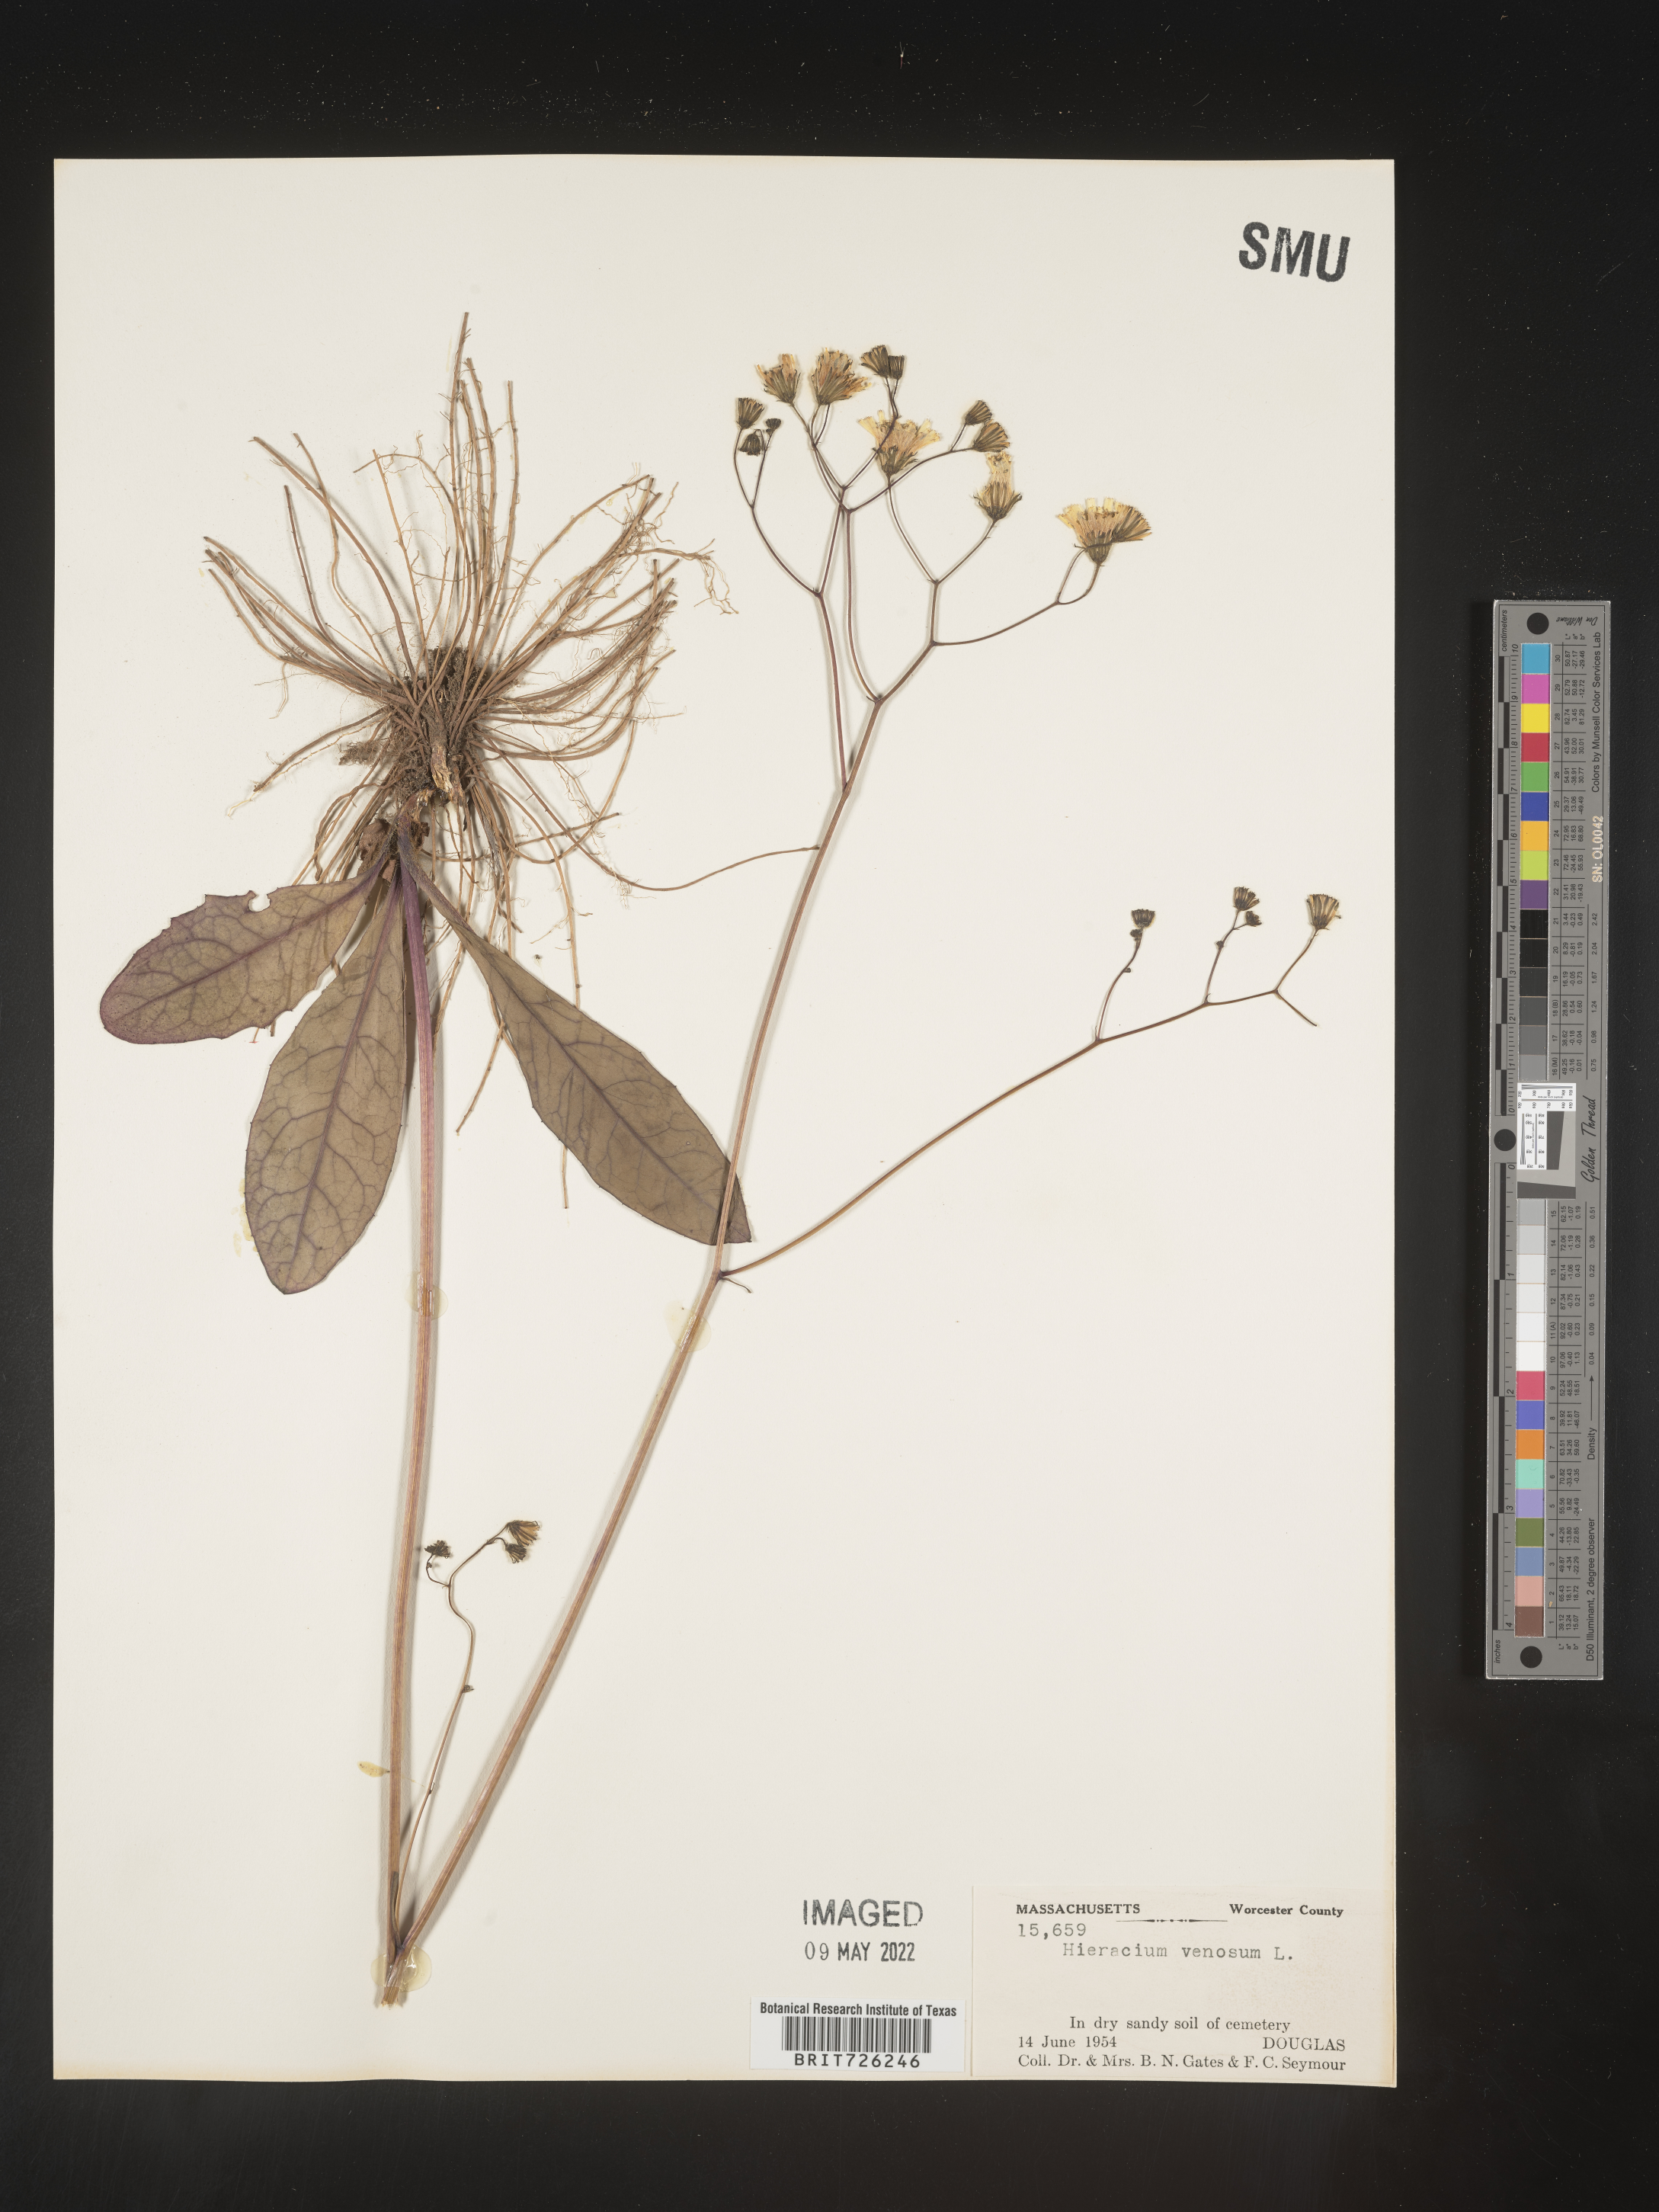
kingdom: Plantae
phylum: Tracheophyta
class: Magnoliopsida
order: Asterales
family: Asteraceae
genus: Hieracium
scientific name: Hieracium
